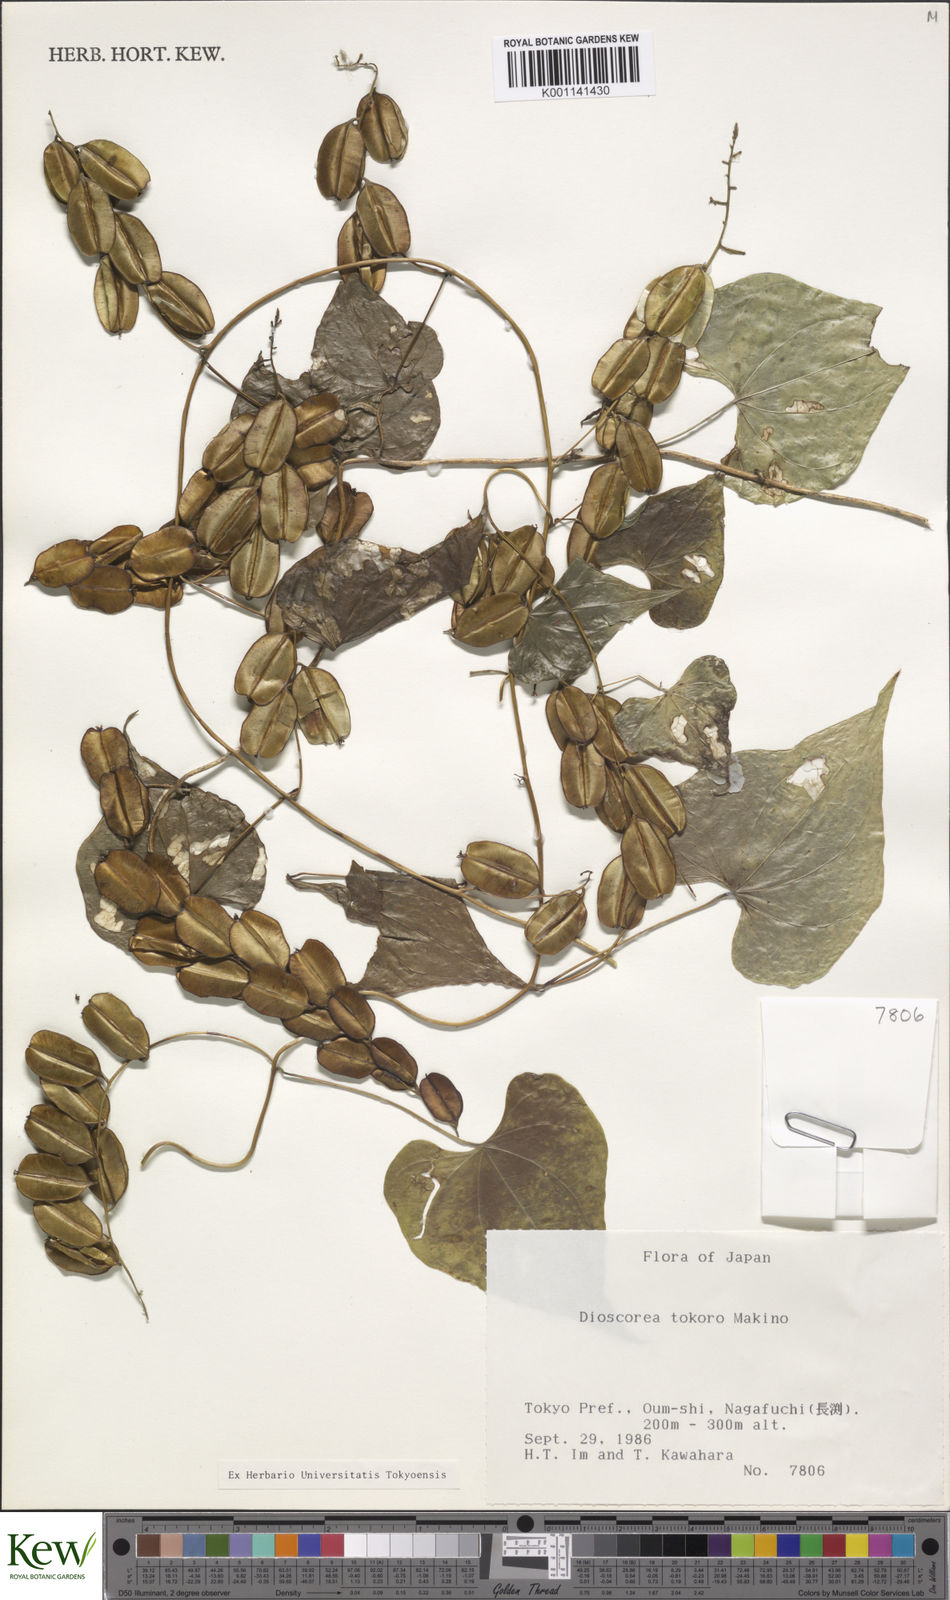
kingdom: Plantae
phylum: Tracheophyta
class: Liliopsida
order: Dioscoreales
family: Dioscoreaceae
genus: Dioscorea
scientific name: Dioscorea tokoro
